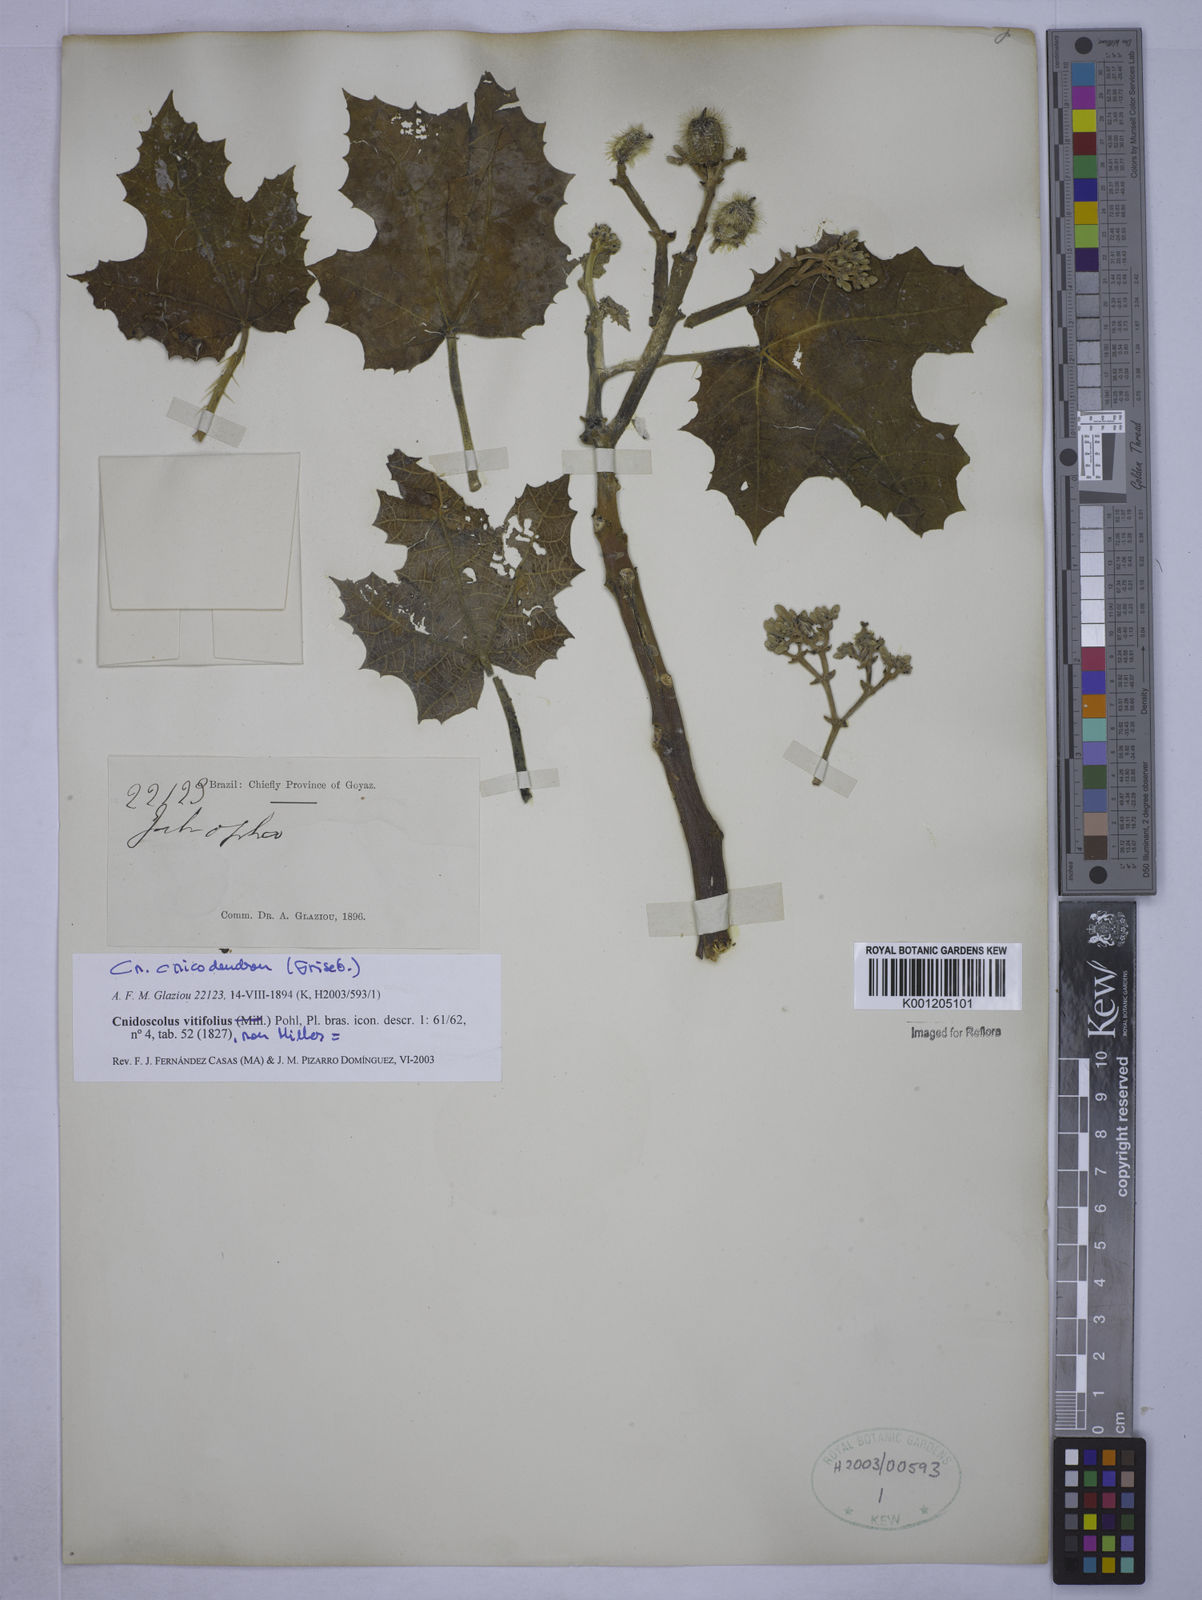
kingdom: Plantae
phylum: Tracheophyta
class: Magnoliopsida
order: Malpighiales
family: Euphorbiaceae
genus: Cnidoscolus
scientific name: Cnidoscolus vitifolius
